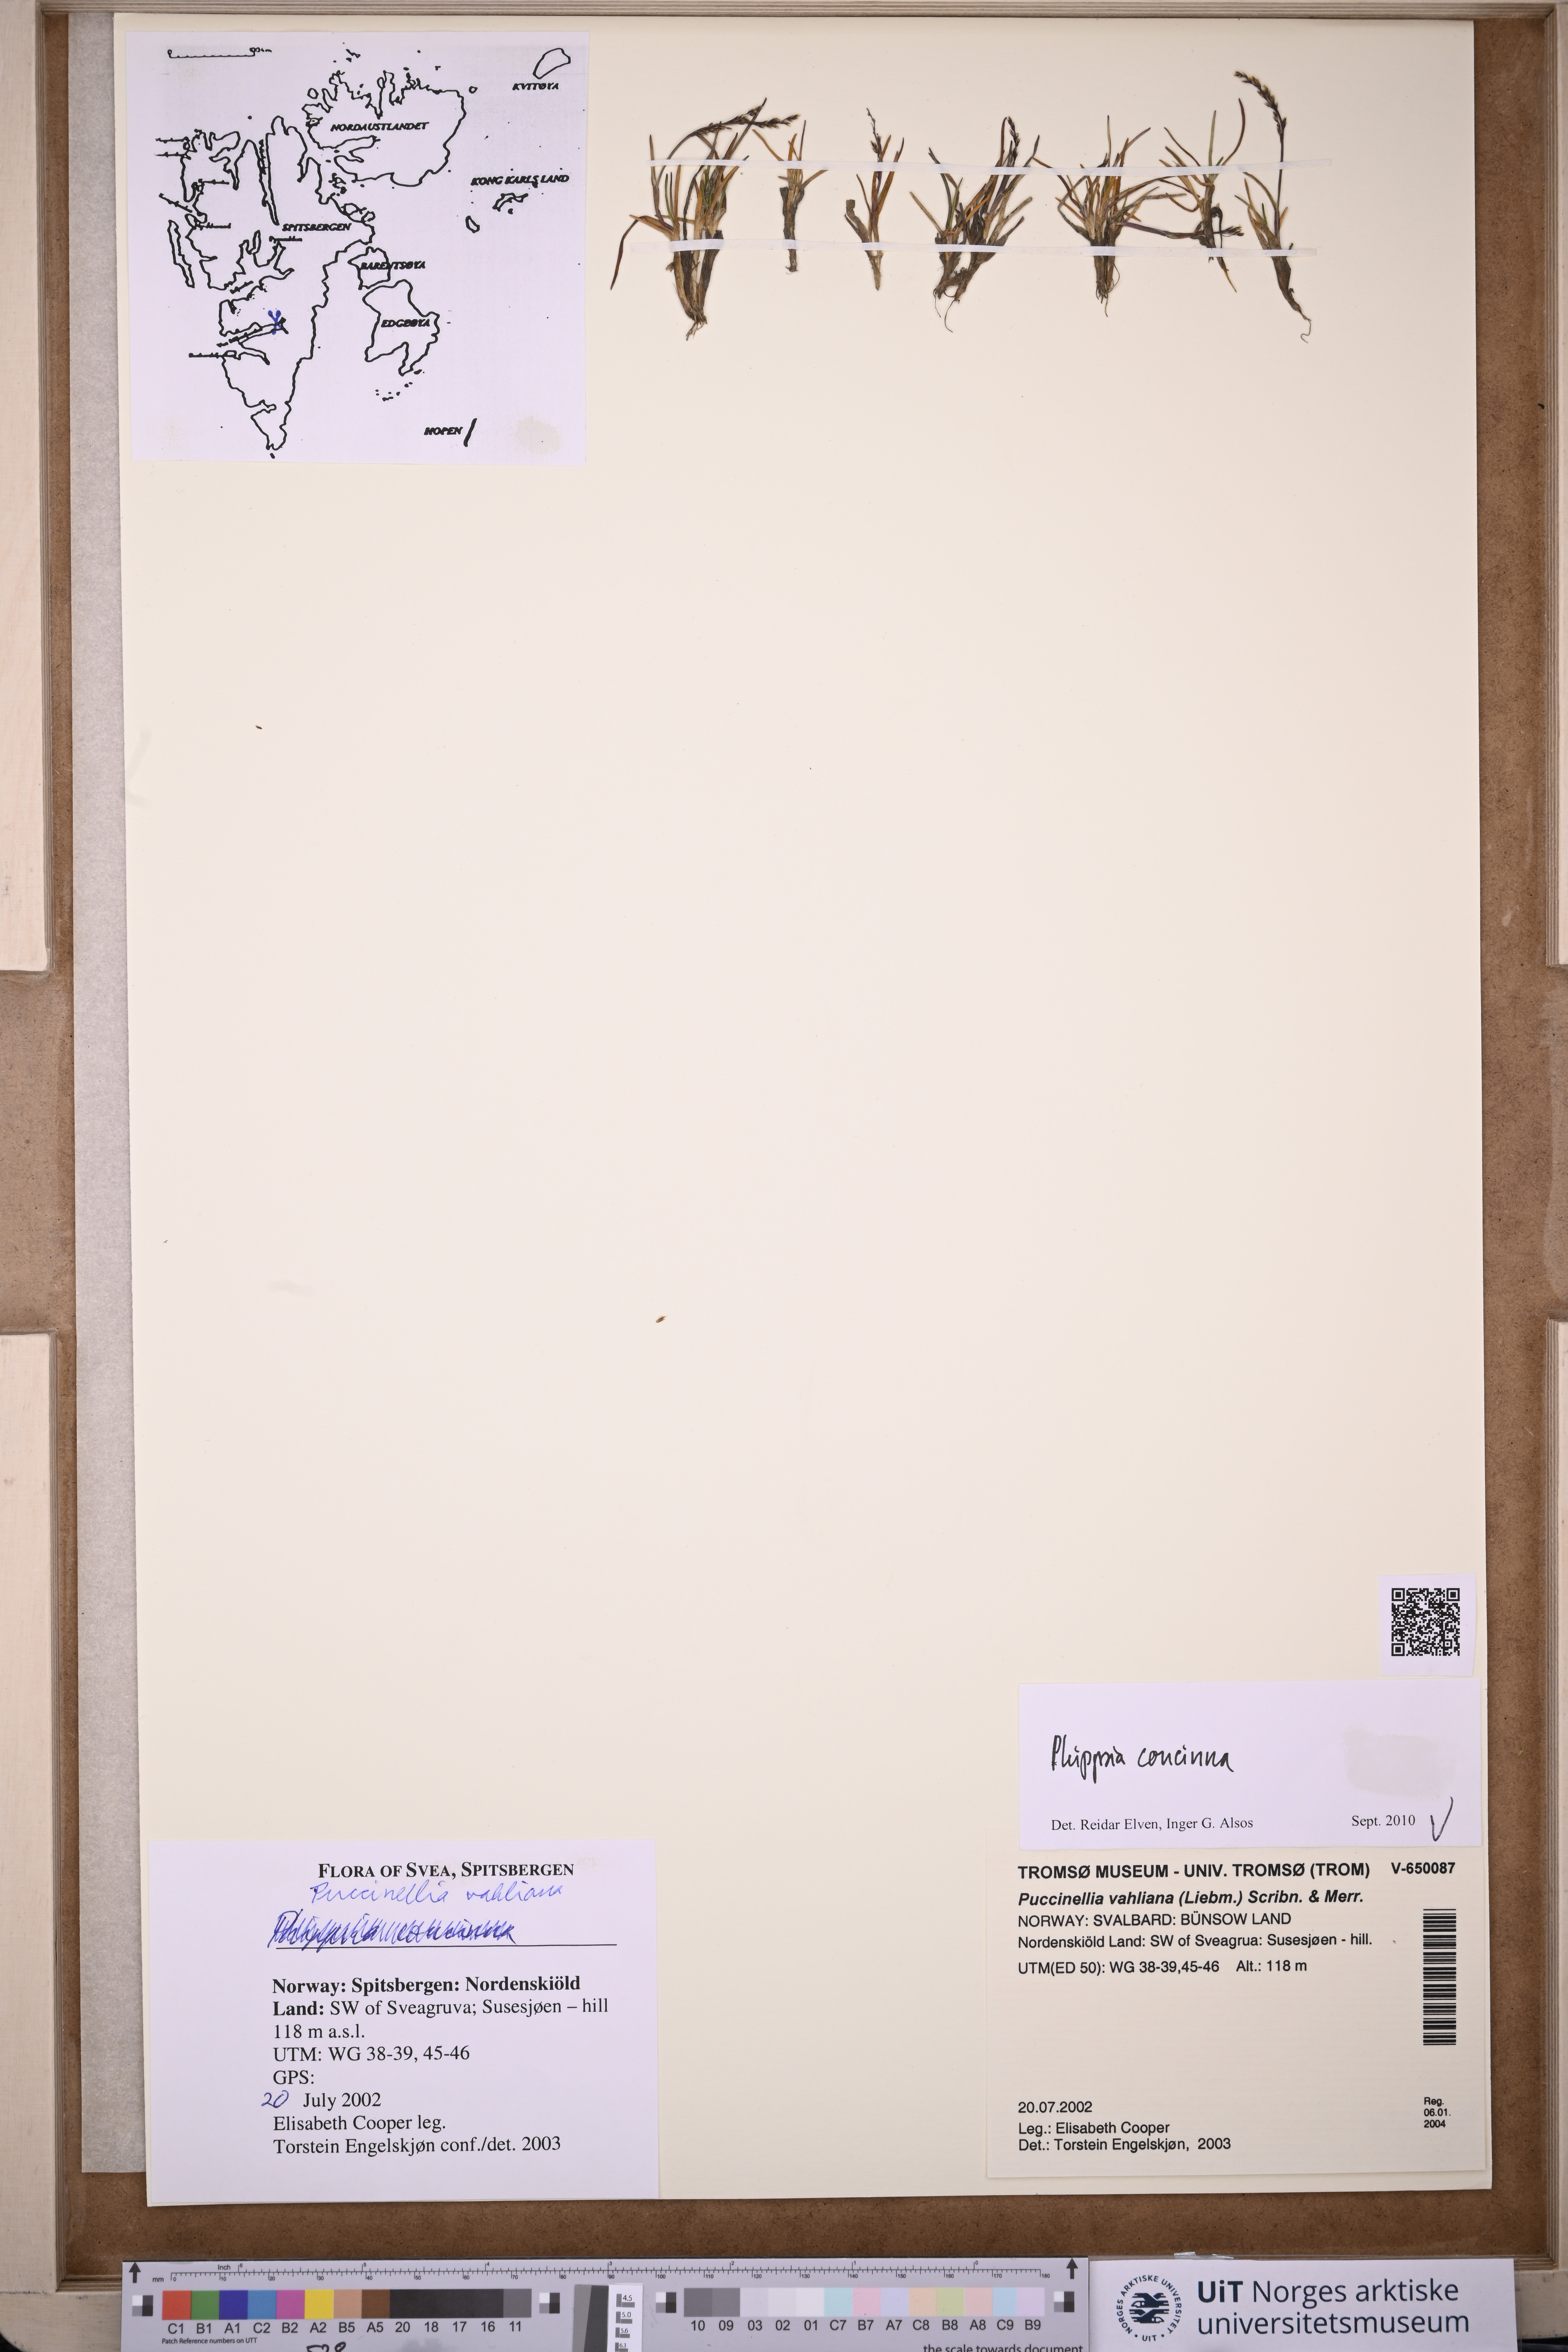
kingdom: Plantae
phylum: Tracheophyta
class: Liliopsida
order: Poales
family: Poaceae
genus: Phippsia
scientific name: Phippsia concinna
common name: Snowgrass
